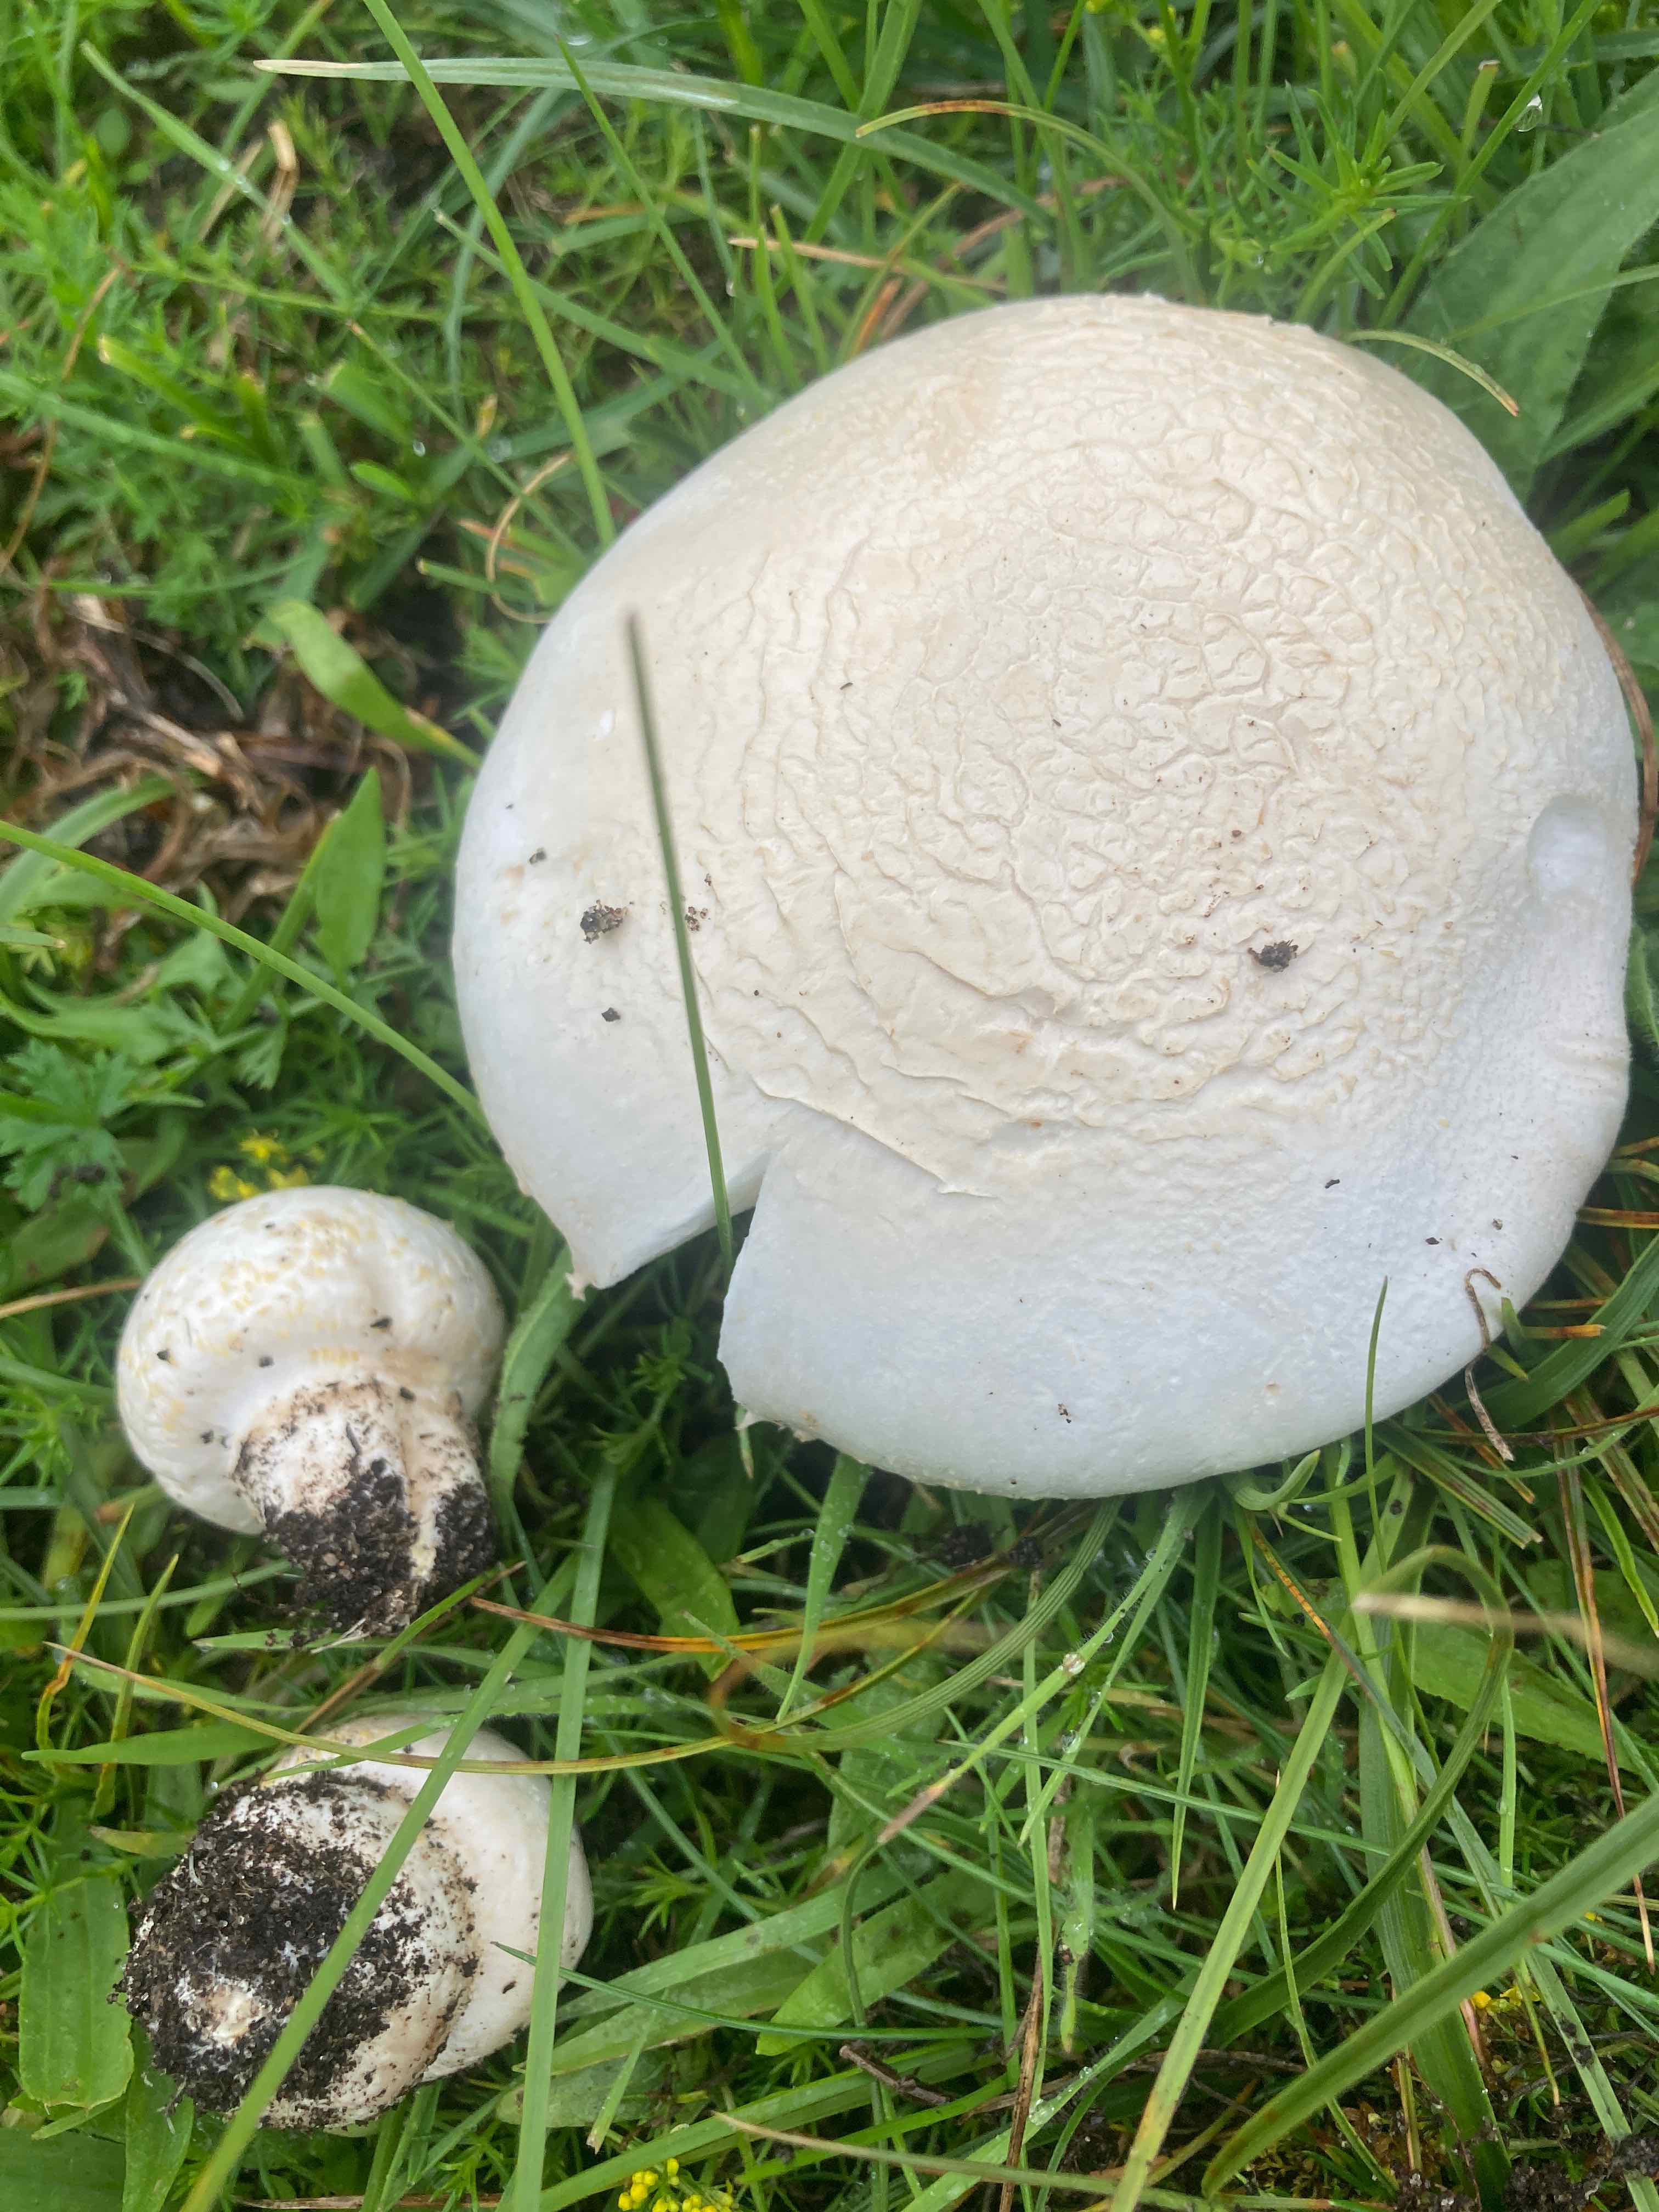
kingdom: Fungi
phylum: Basidiomycota
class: Agaricomycetes
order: Agaricales
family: Agaricaceae
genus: Agaricus
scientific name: Agaricus litoralis
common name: kyst-champignon
